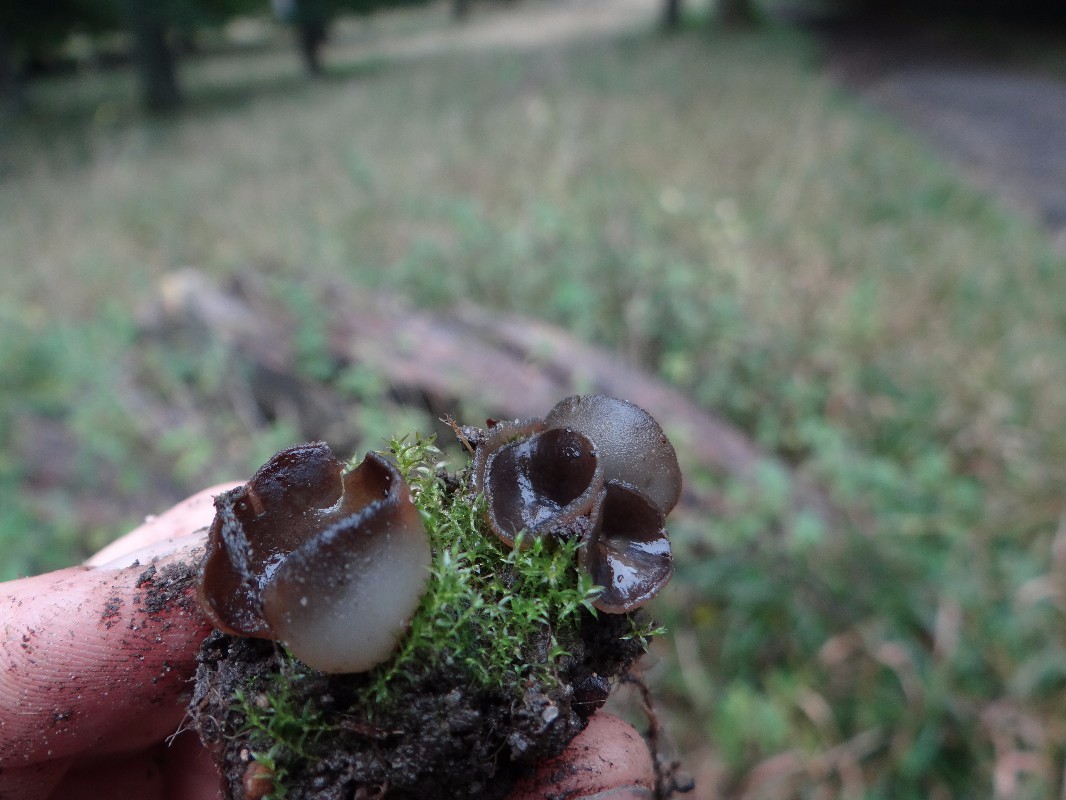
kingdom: Fungi
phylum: Ascomycota
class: Pezizomycetes
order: Pezizales
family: Pezizaceae
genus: Legaliana
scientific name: Legaliana badia
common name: leverbrun bægersvamp
